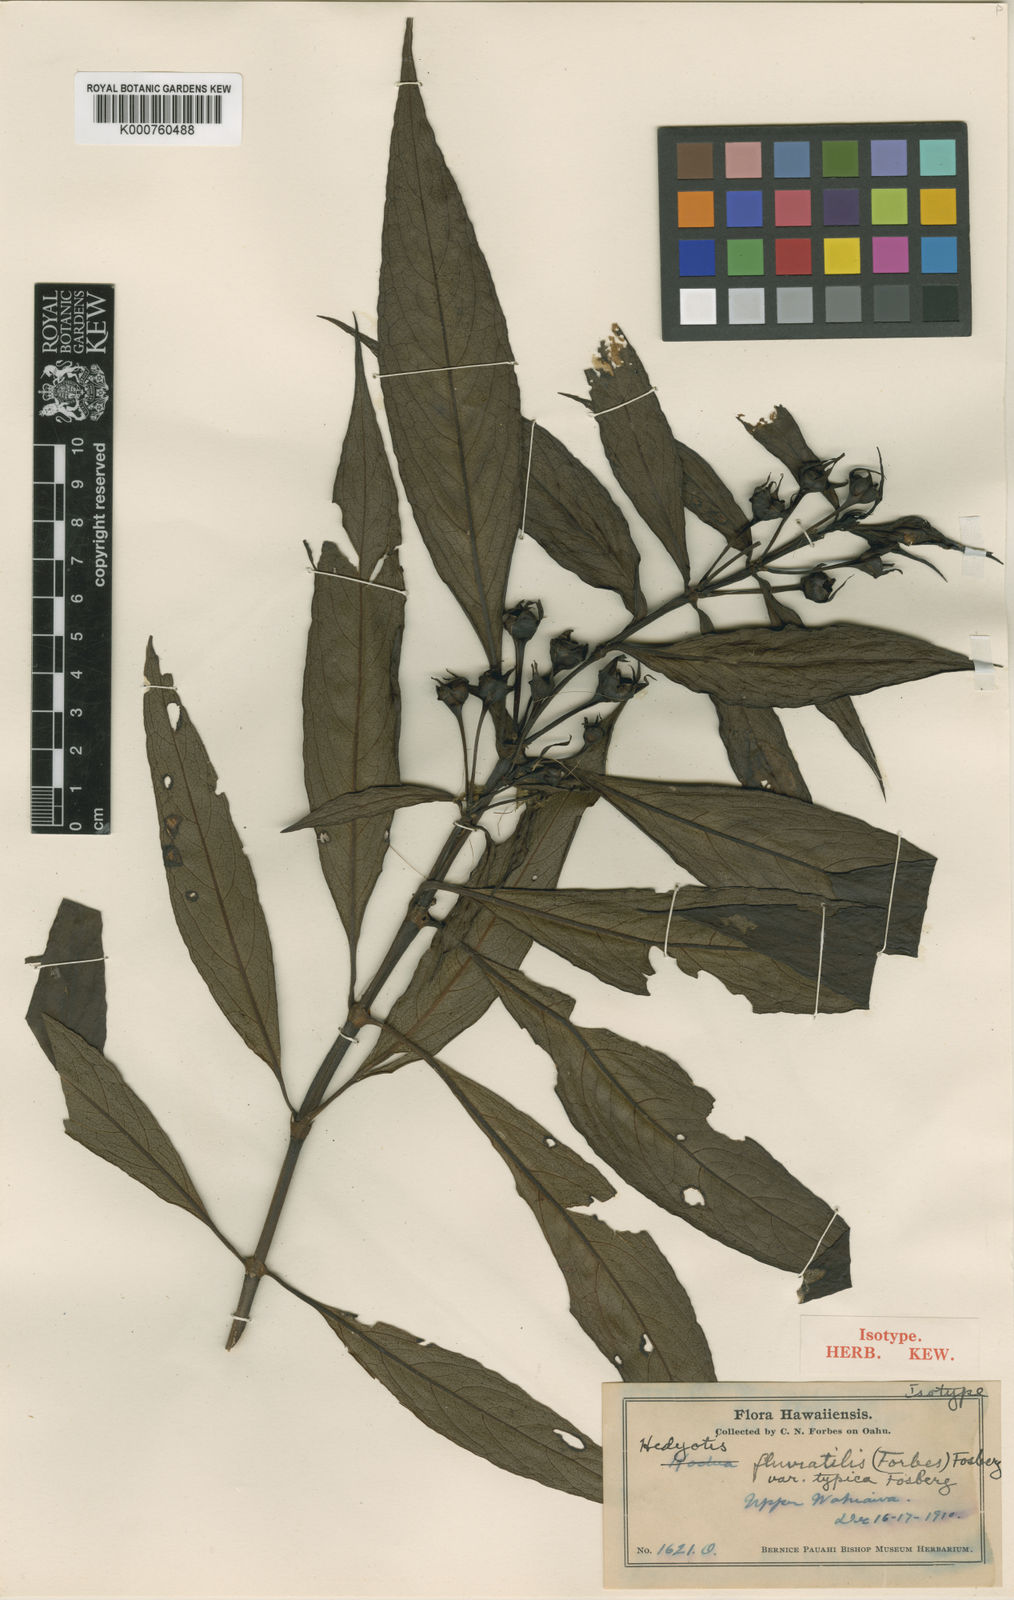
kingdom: Plantae
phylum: Tracheophyta
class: Magnoliopsida
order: Gentianales
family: Rubiaceae
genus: Kadua
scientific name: Kadua fluviatilis
